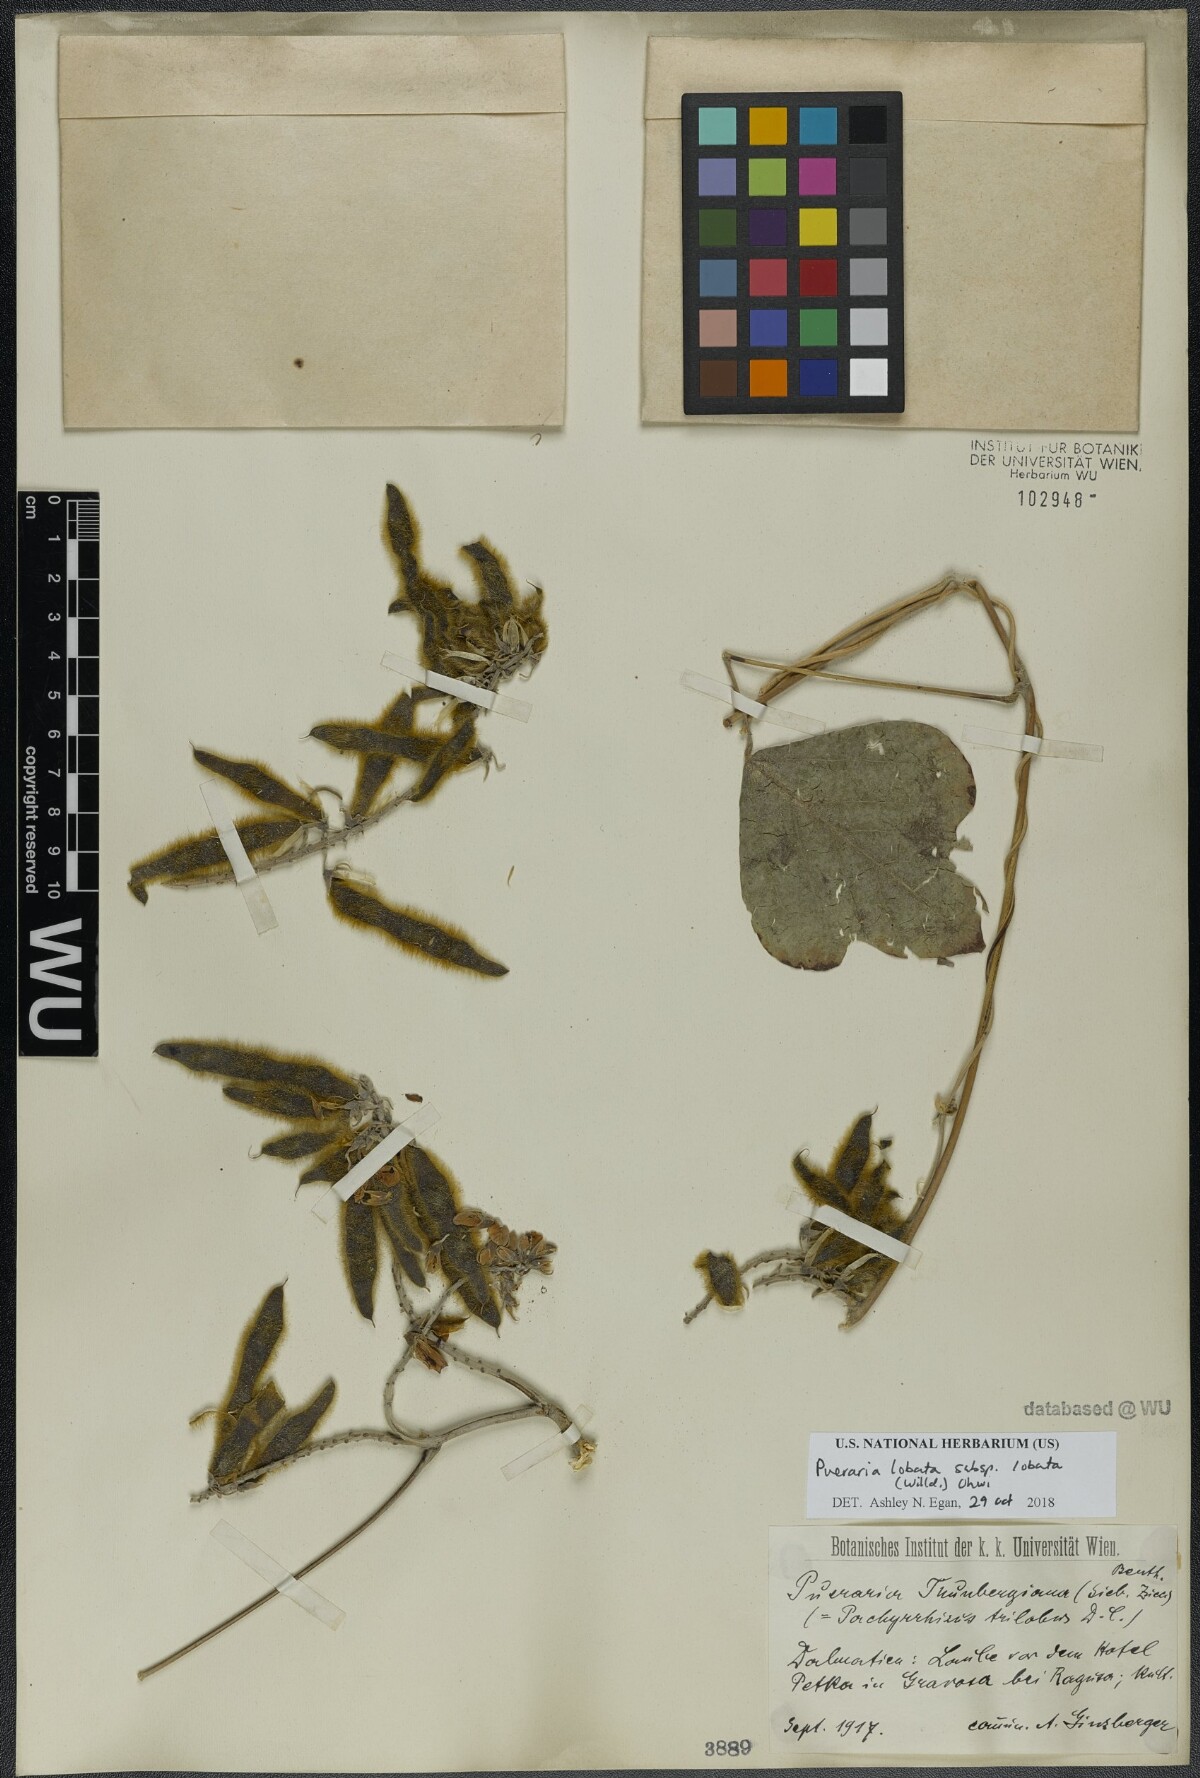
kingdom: Plantae
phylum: Tracheophyta
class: Magnoliopsida
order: Fabales
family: Fabaceae
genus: Pueraria
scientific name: Pueraria montana
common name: Kudzu
